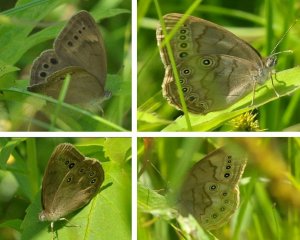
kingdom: Animalia
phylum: Arthropoda
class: Insecta
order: Lepidoptera
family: Nymphalidae
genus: Lethe
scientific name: Lethe eurydice
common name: Eyed Brown
